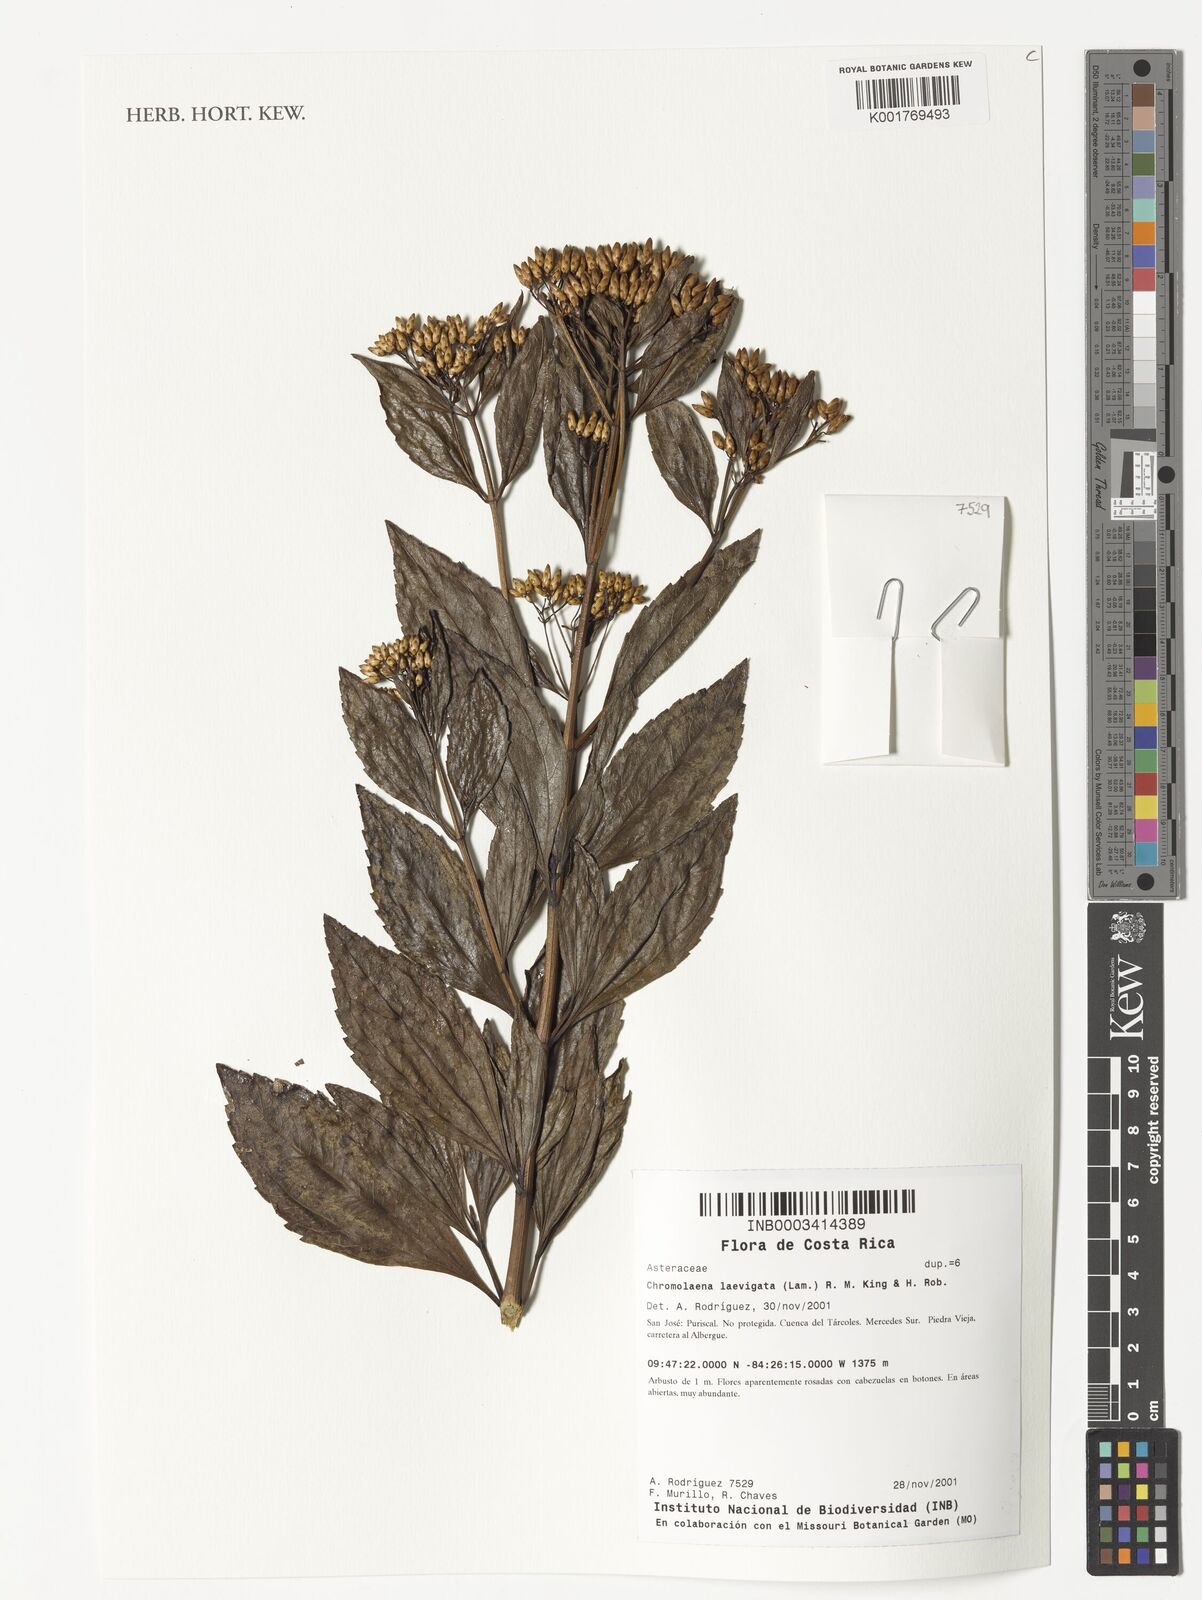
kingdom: Plantae
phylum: Tracheophyta
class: Magnoliopsida
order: Asterales
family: Asteraceae
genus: Chromolaena
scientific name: Chromolaena laevigata
